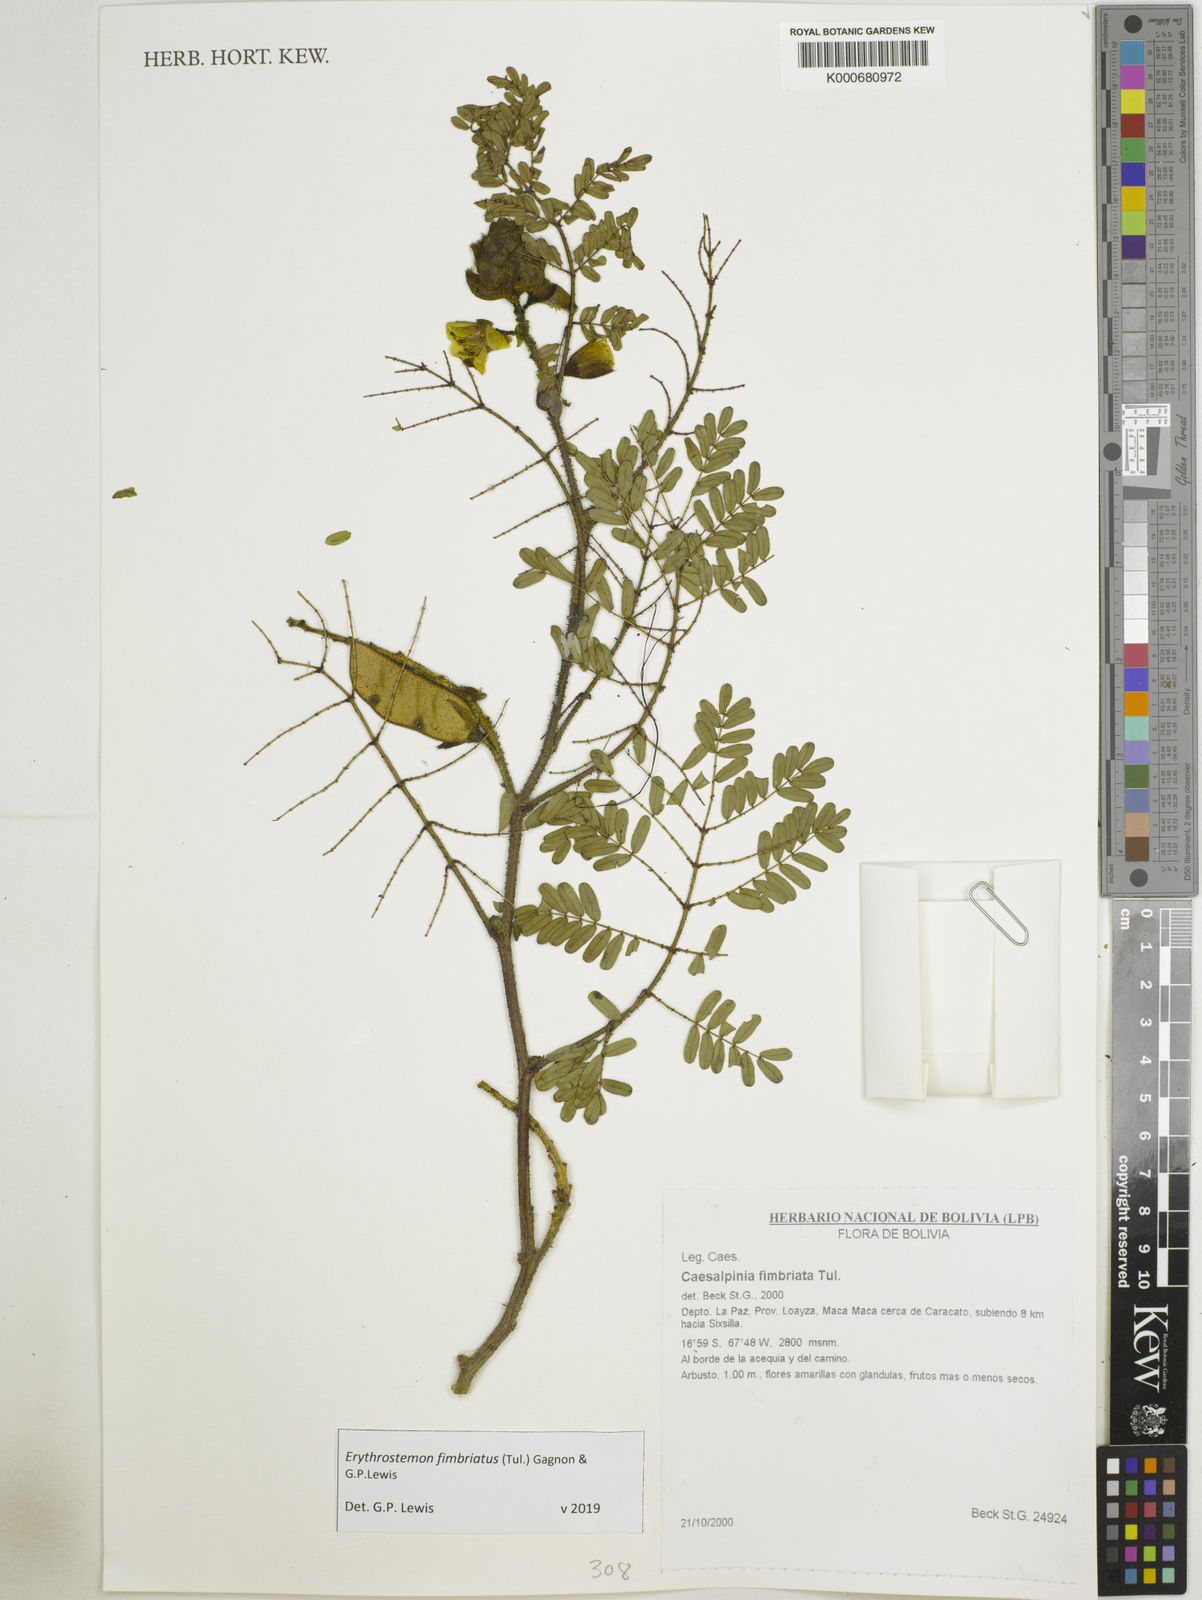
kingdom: Plantae
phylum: Tracheophyta
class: Magnoliopsida
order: Fabales
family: Fabaceae
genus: Erythrostemon
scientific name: Erythrostemon fimbriatus
